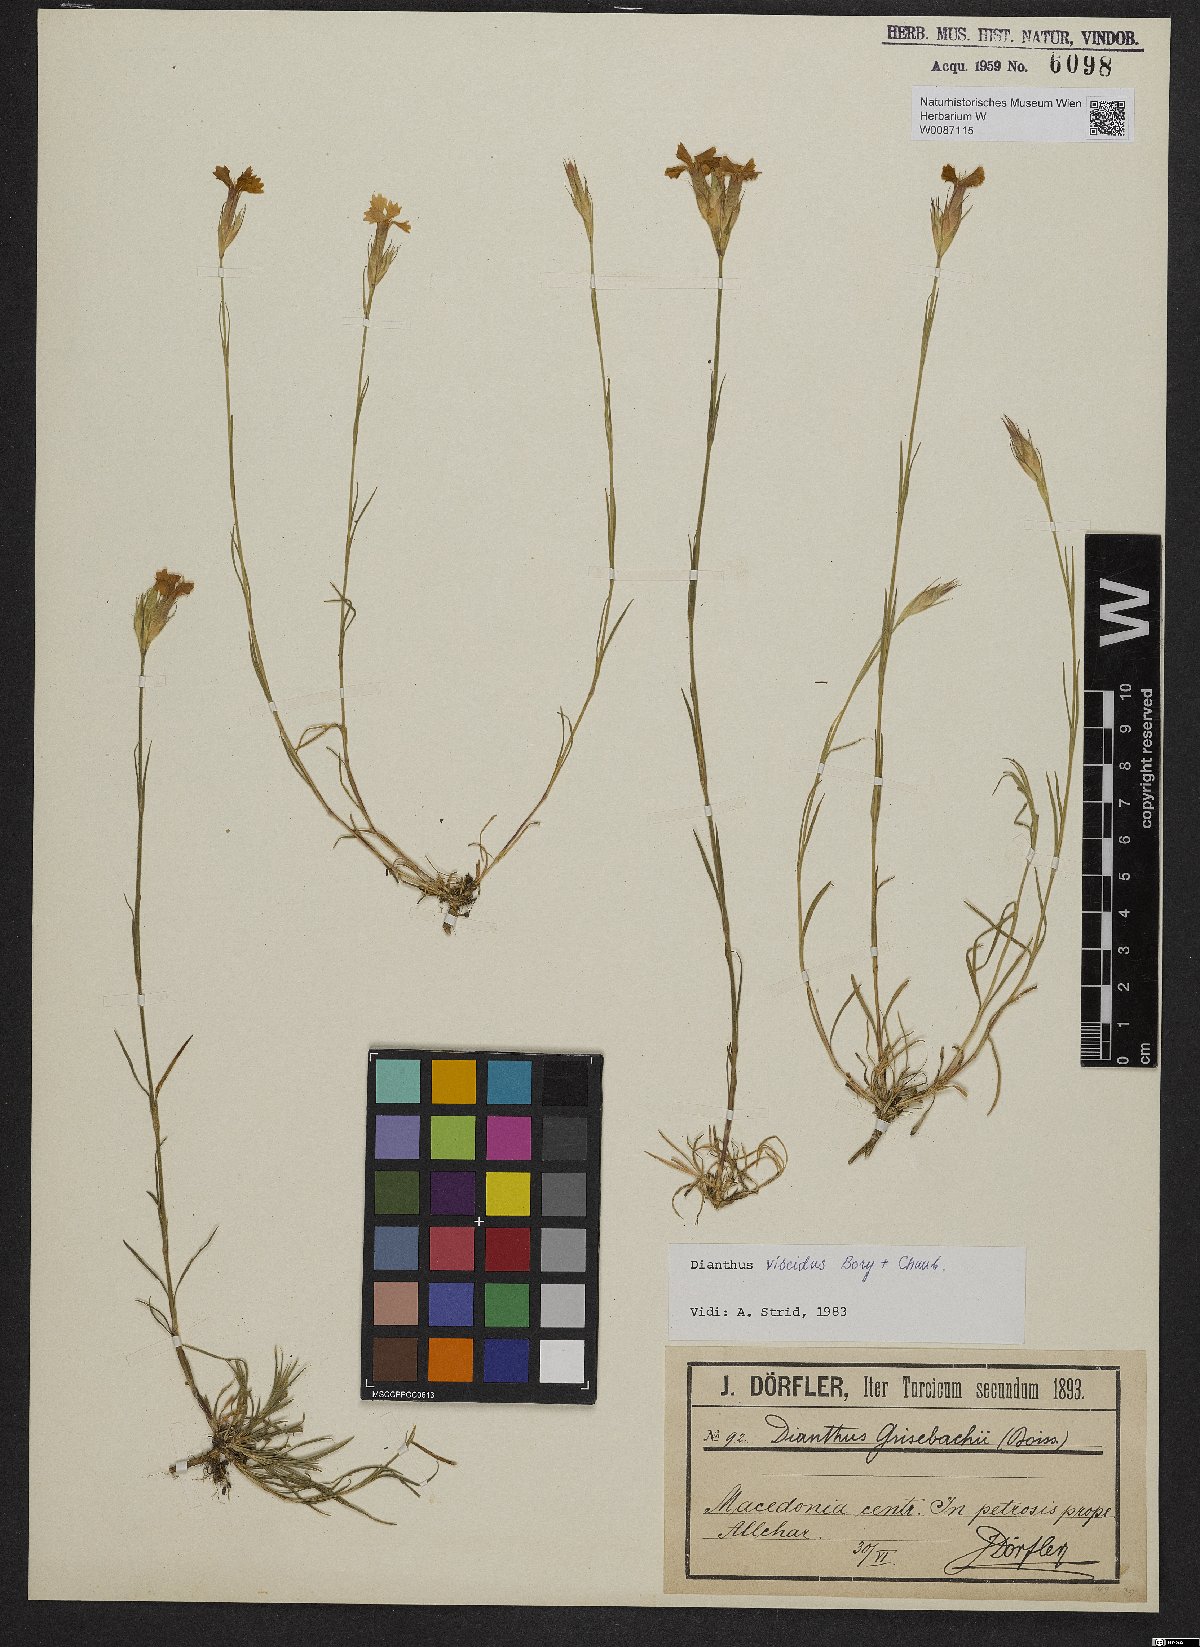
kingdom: Plantae
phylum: Tracheophyta
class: Magnoliopsida
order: Caryophyllales
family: Caryophyllaceae
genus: Dianthus
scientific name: Dianthus viscidus
